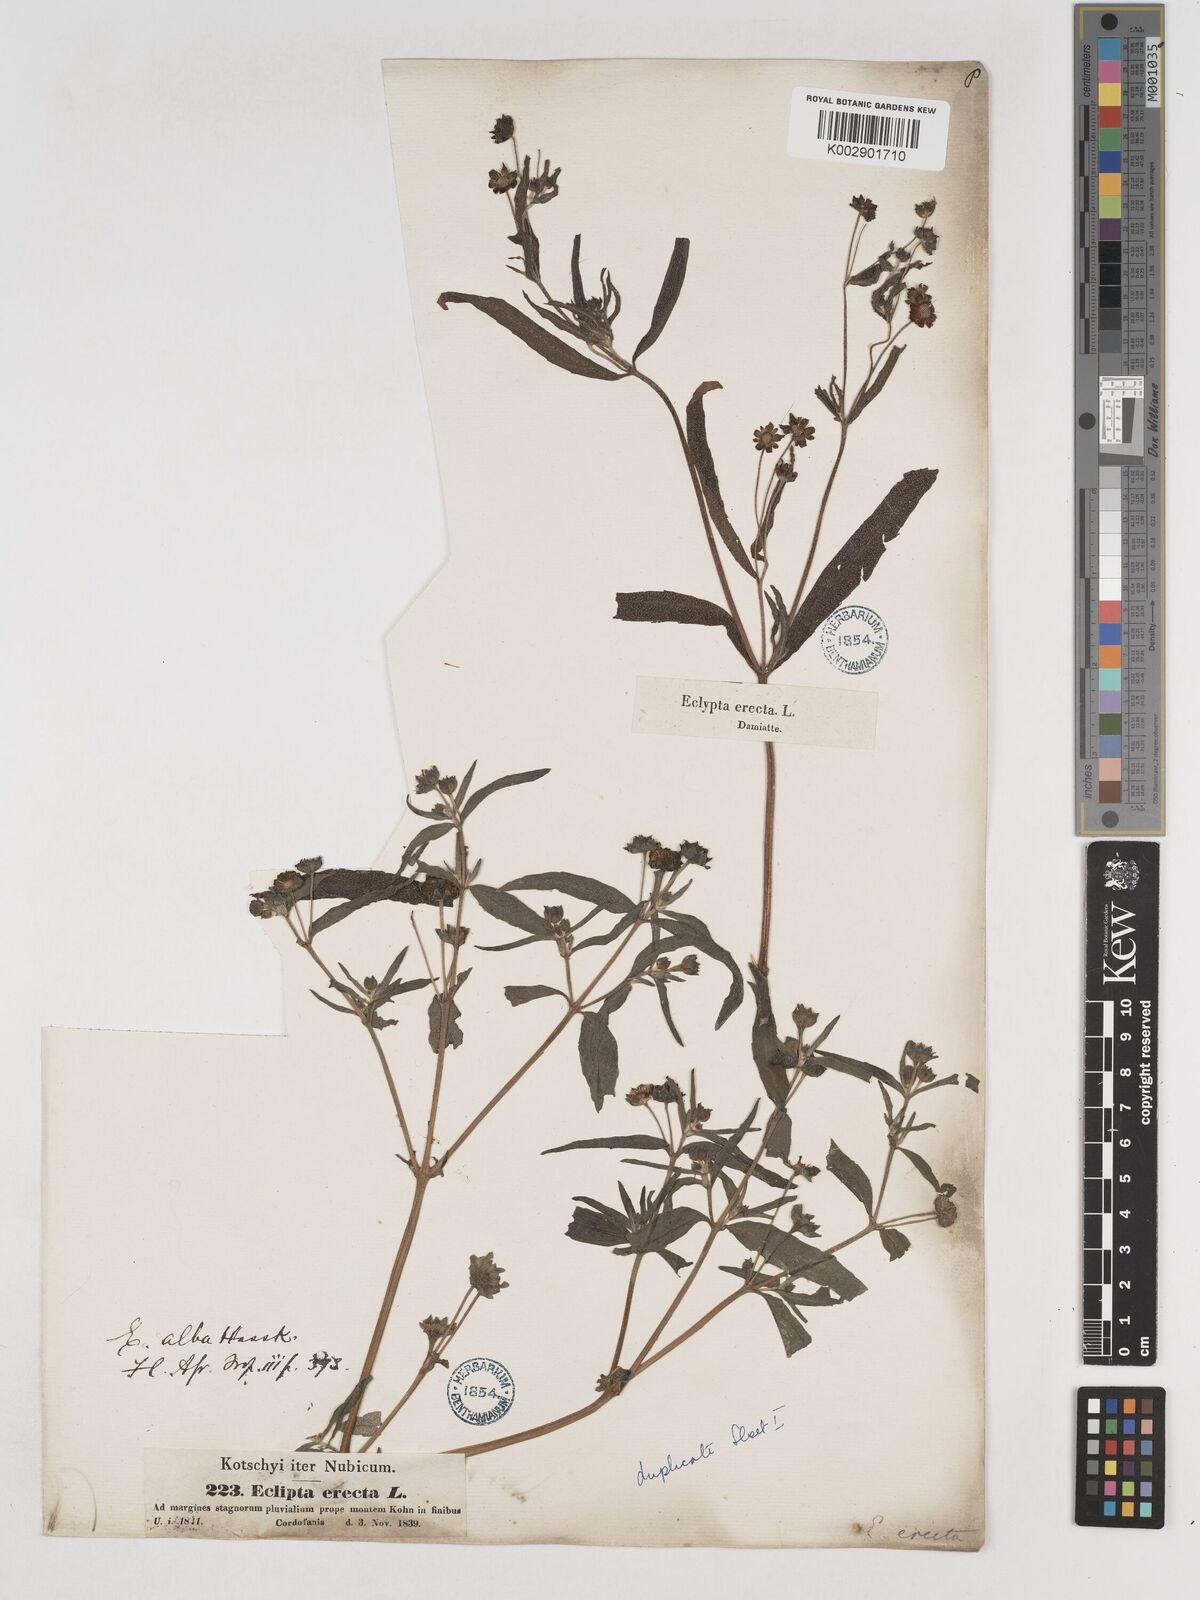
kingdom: Plantae
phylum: Tracheophyta
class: Magnoliopsida
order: Asterales
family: Asteraceae
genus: Eclipta
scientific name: Eclipta alba
